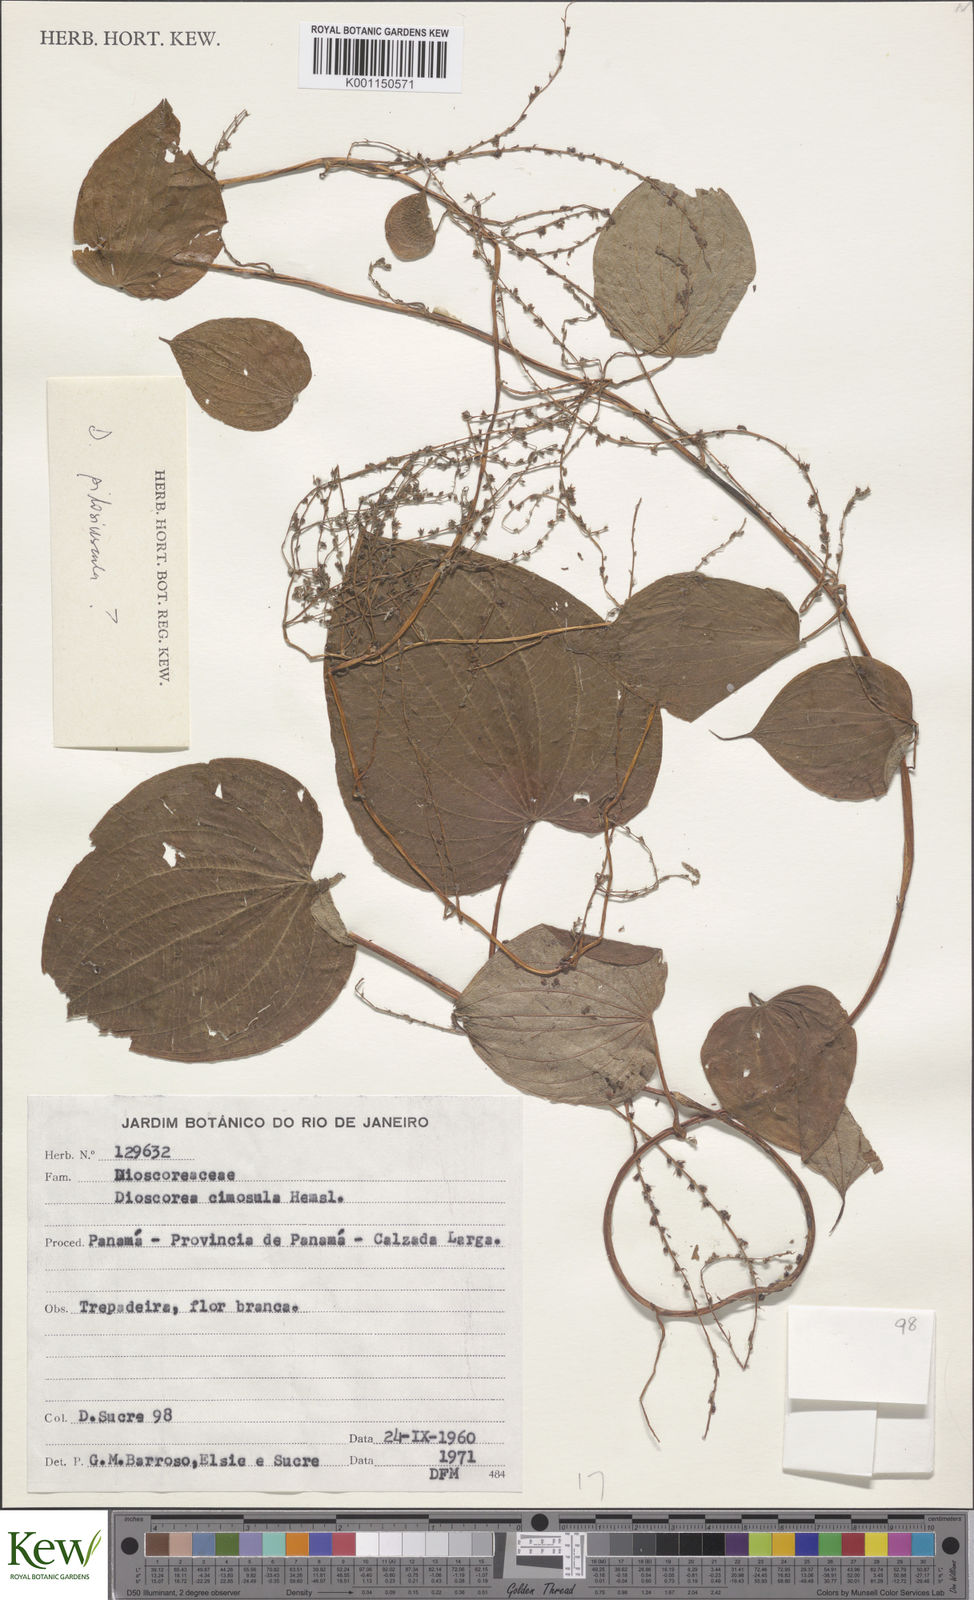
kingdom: Plantae
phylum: Tracheophyta
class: Liliopsida
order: Dioscoreales
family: Dioscoreaceae
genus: Dioscorea
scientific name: Dioscorea stegelmanniana
